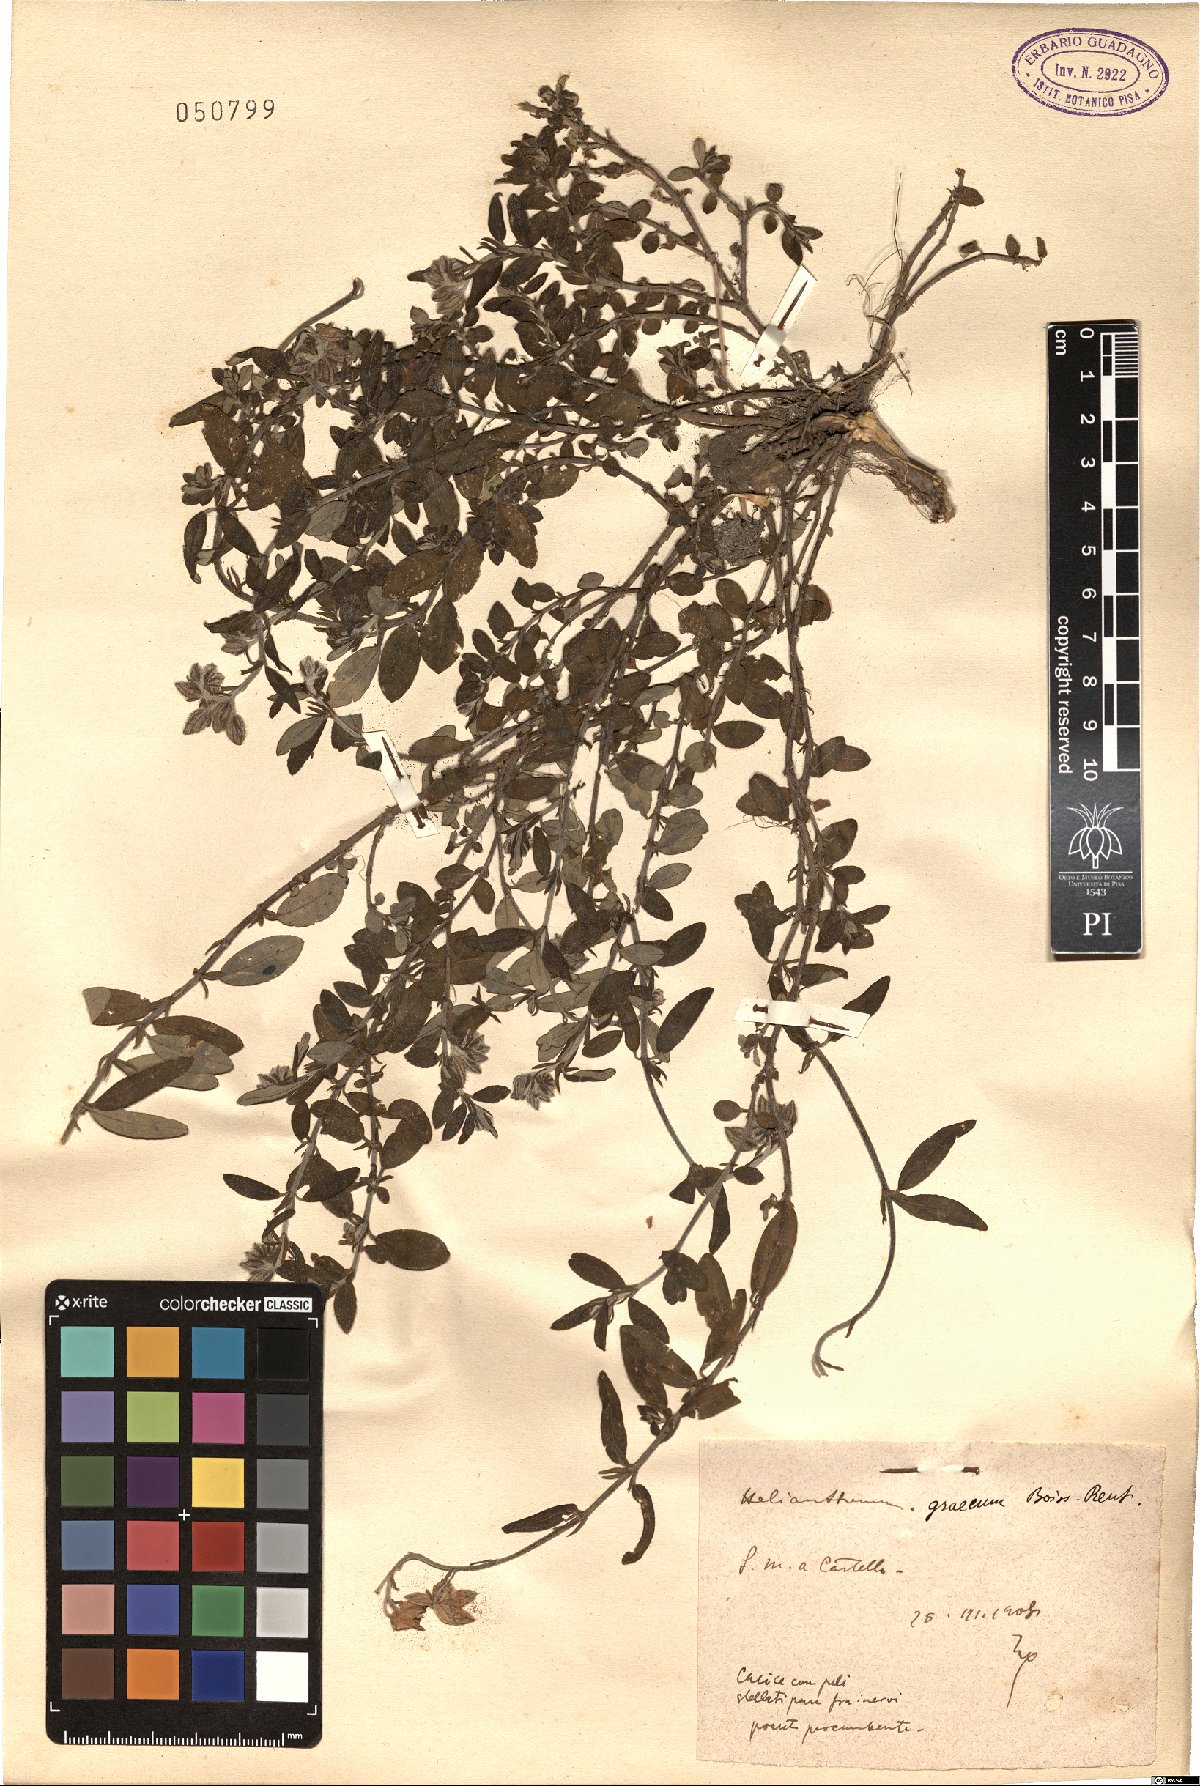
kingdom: Plantae
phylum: Tracheophyta
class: Magnoliopsida
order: Malvales
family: Cistaceae
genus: Helianthemum
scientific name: Helianthemum nummularium
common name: Common rock-rose
